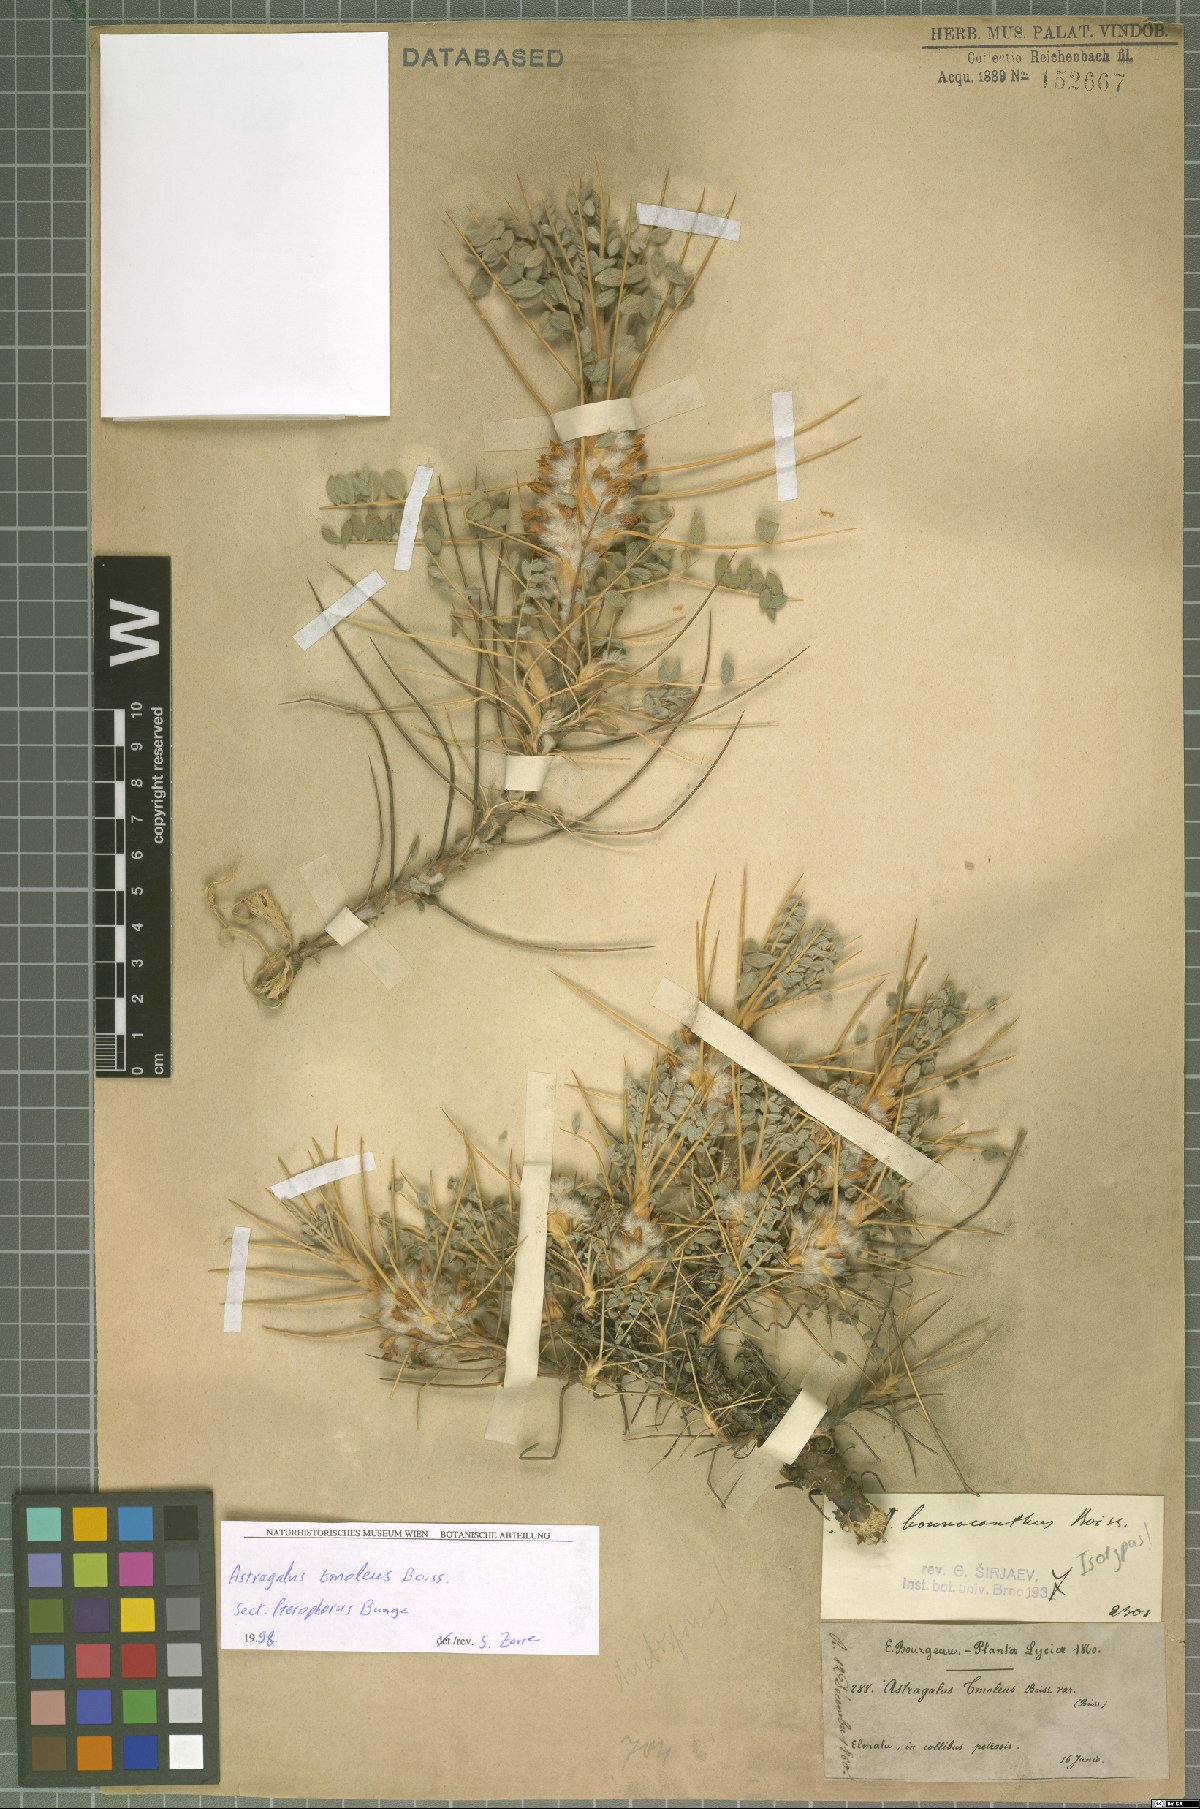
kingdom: Plantae
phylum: Tracheophyta
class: Magnoliopsida
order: Fabales
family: Fabaceae
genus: Astragalus
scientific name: Astragalus tmoleus
